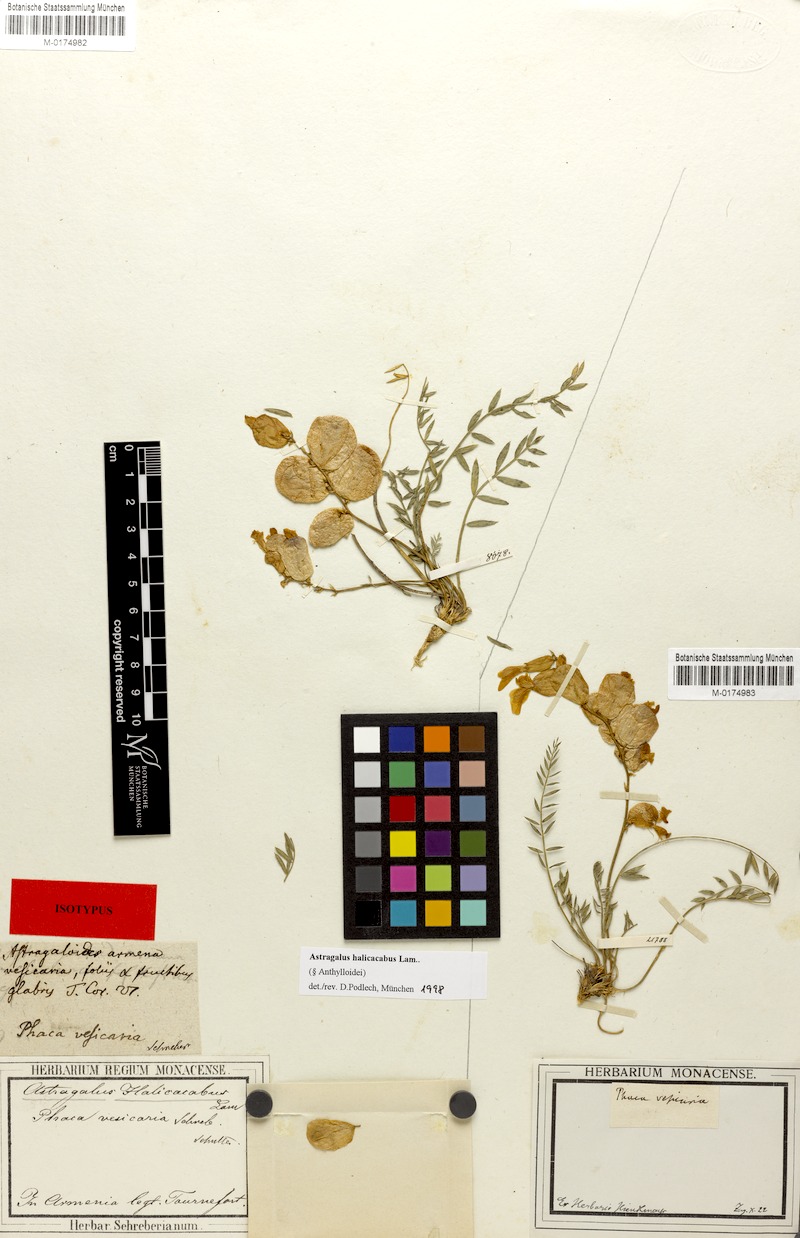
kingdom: Plantae
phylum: Tracheophyta
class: Magnoliopsida
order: Fabales
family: Fabaceae
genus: Astragalus
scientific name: Astragalus halicacabus
